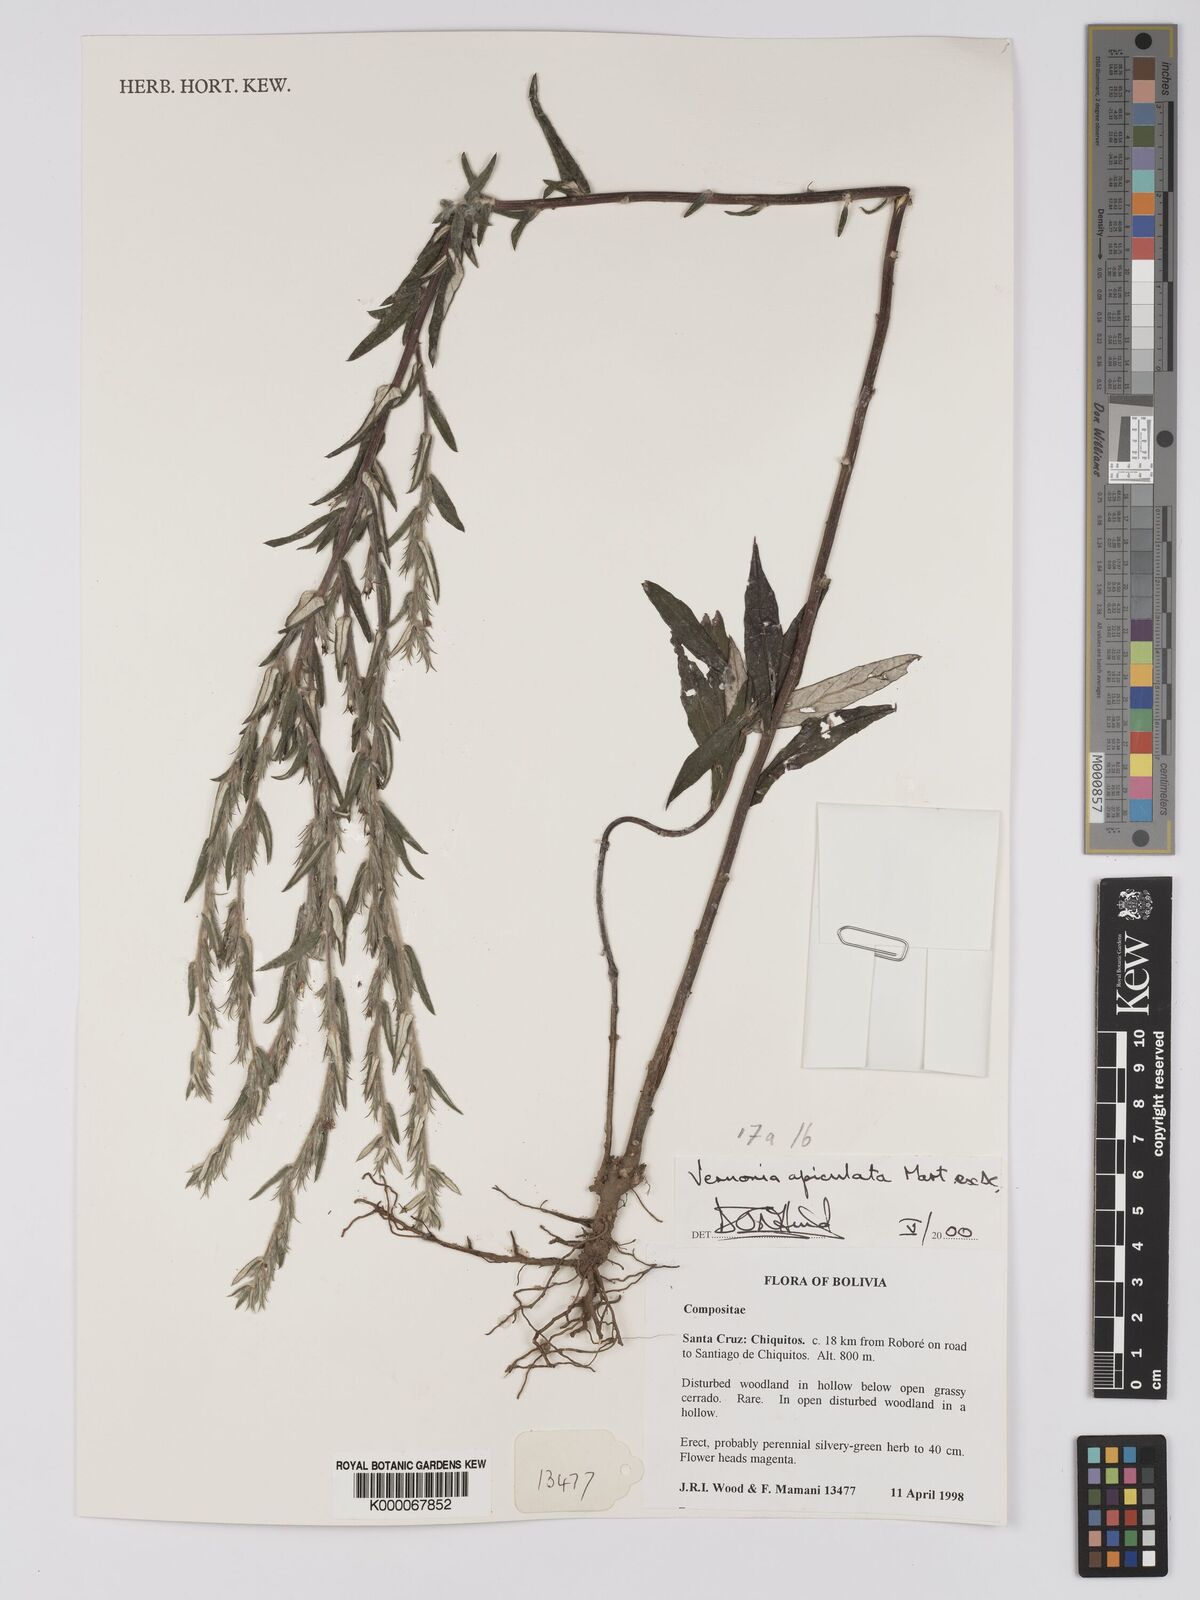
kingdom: Plantae
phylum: Tracheophyta
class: Magnoliopsida
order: Asterales
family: Asteraceae
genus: Stenocephalum
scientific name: Stenocephalum apiculatum
